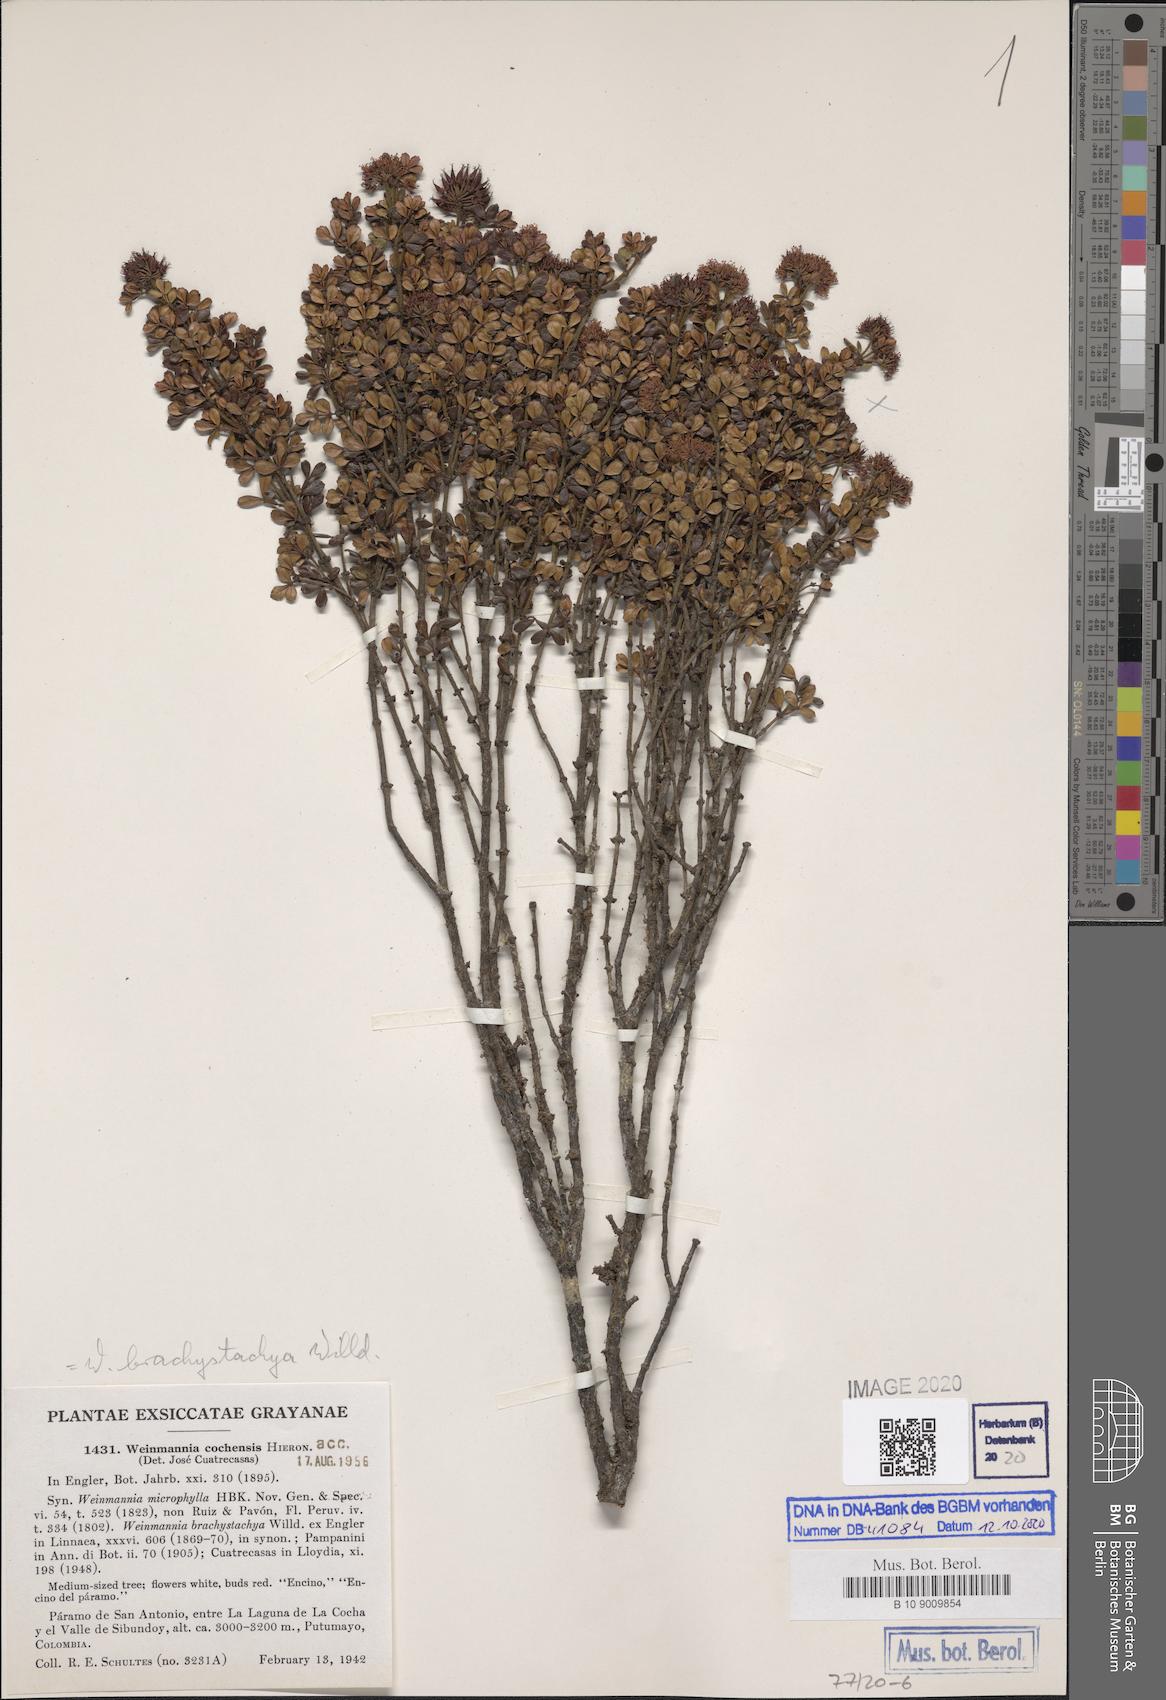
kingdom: Plantae
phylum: Tracheophyta
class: Magnoliopsida
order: Oxalidales
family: Cunoniaceae
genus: Weinmannia
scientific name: Weinmannia cochensis
